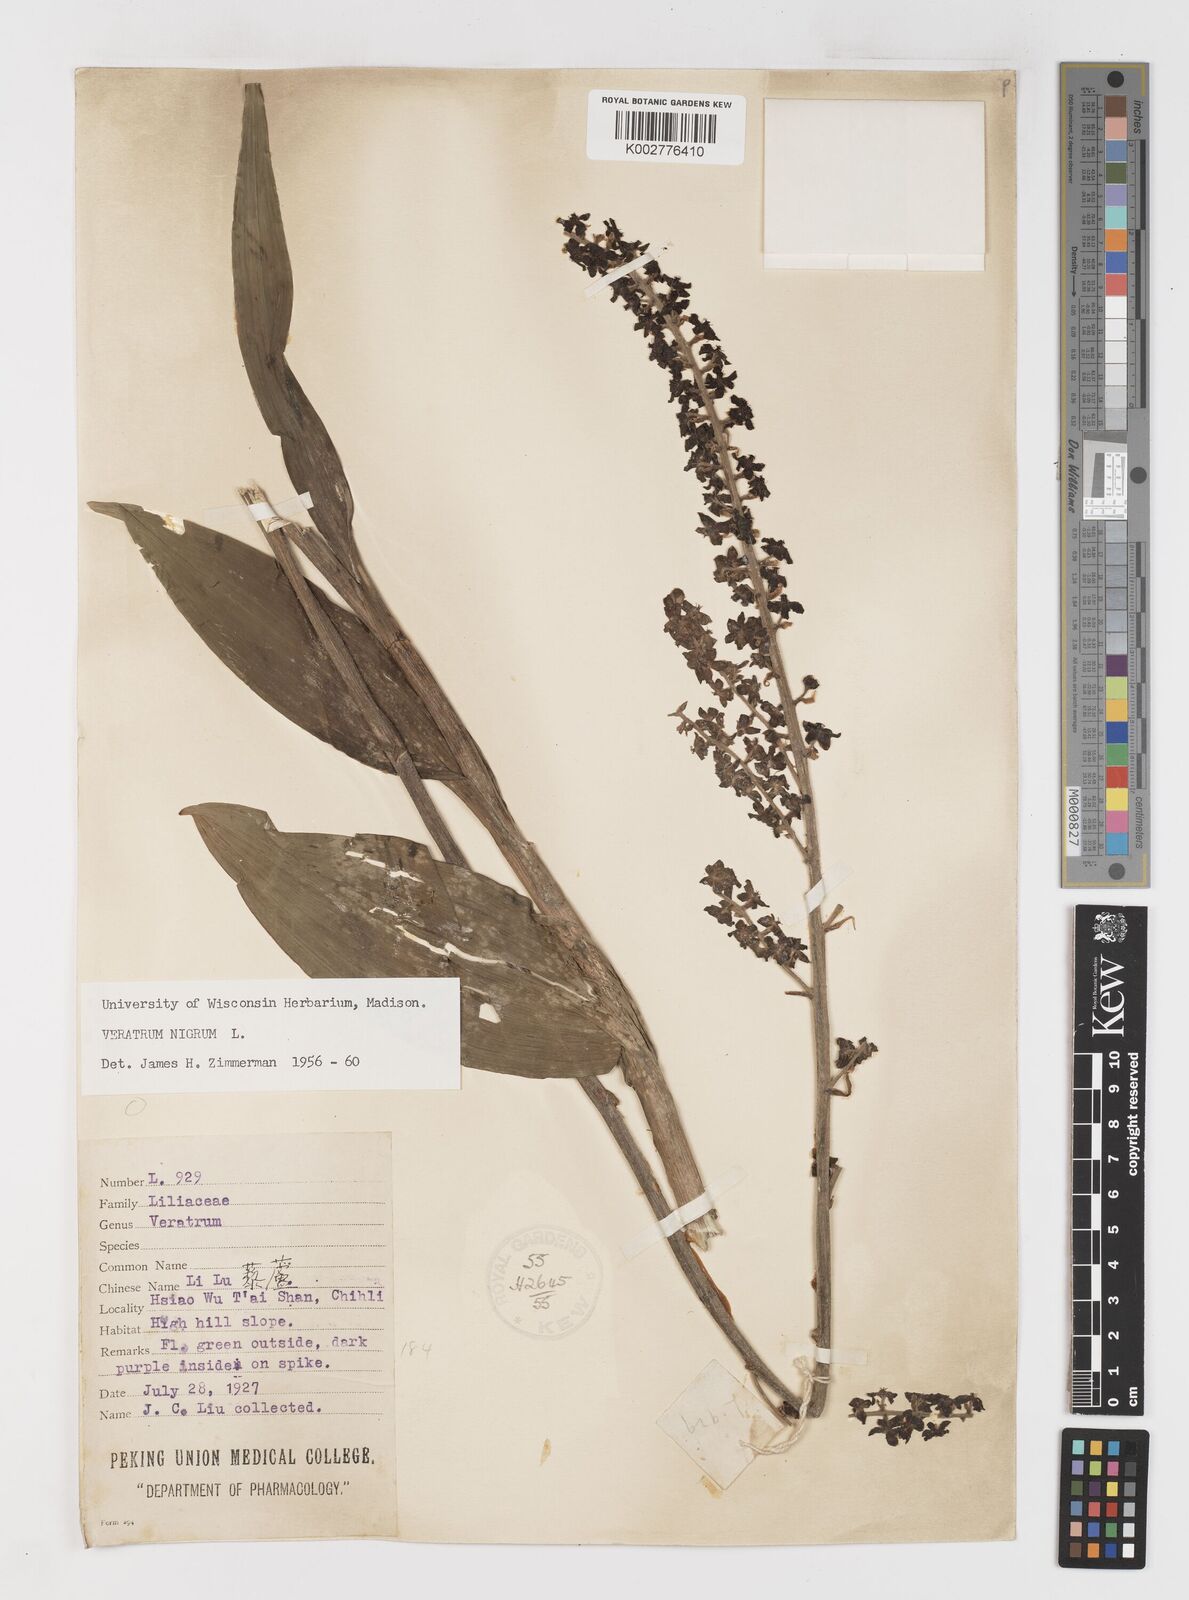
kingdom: Plantae
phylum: Tracheophyta
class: Liliopsida
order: Liliales
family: Melanthiaceae
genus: Veratrum
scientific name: Veratrum nigrum
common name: Black veratrum
